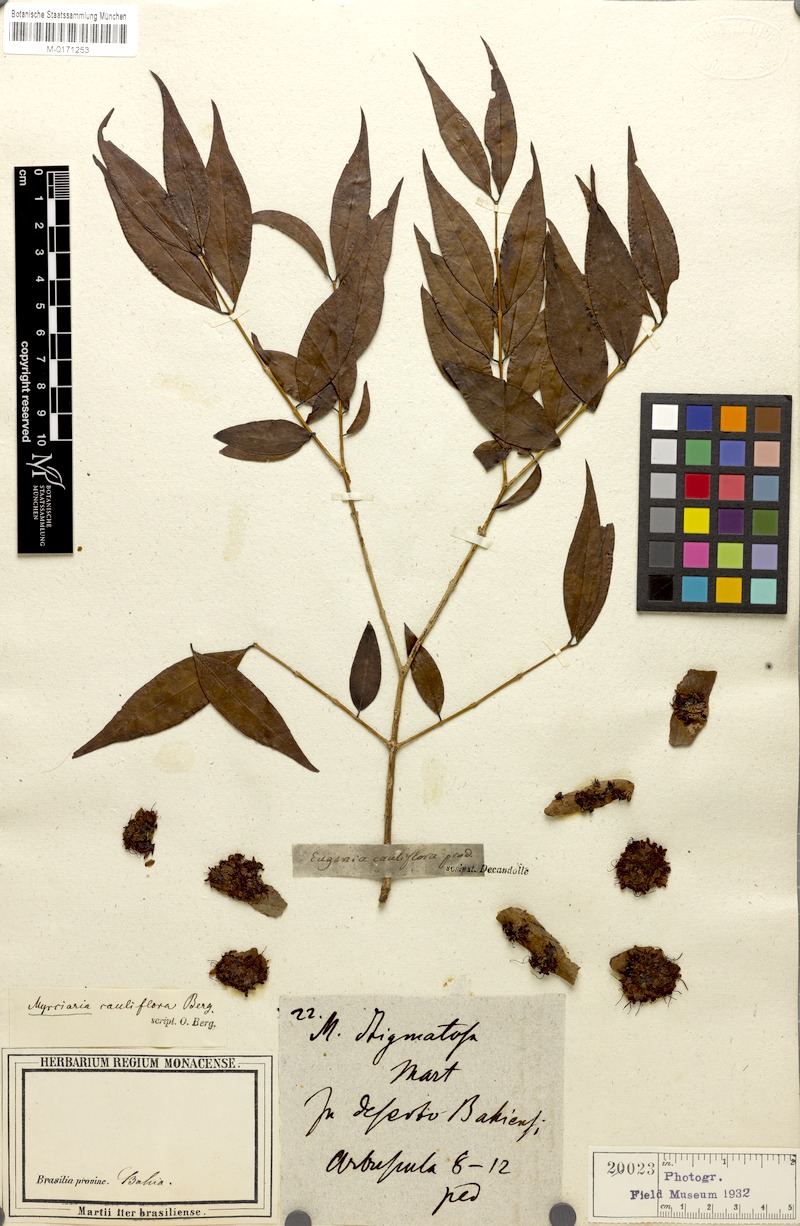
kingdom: Plantae
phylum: Tracheophyta
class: Magnoliopsida
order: Myrtales
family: Myrtaceae
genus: Plinia
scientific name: Plinia cauliflora
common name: Brazilian grapetree
